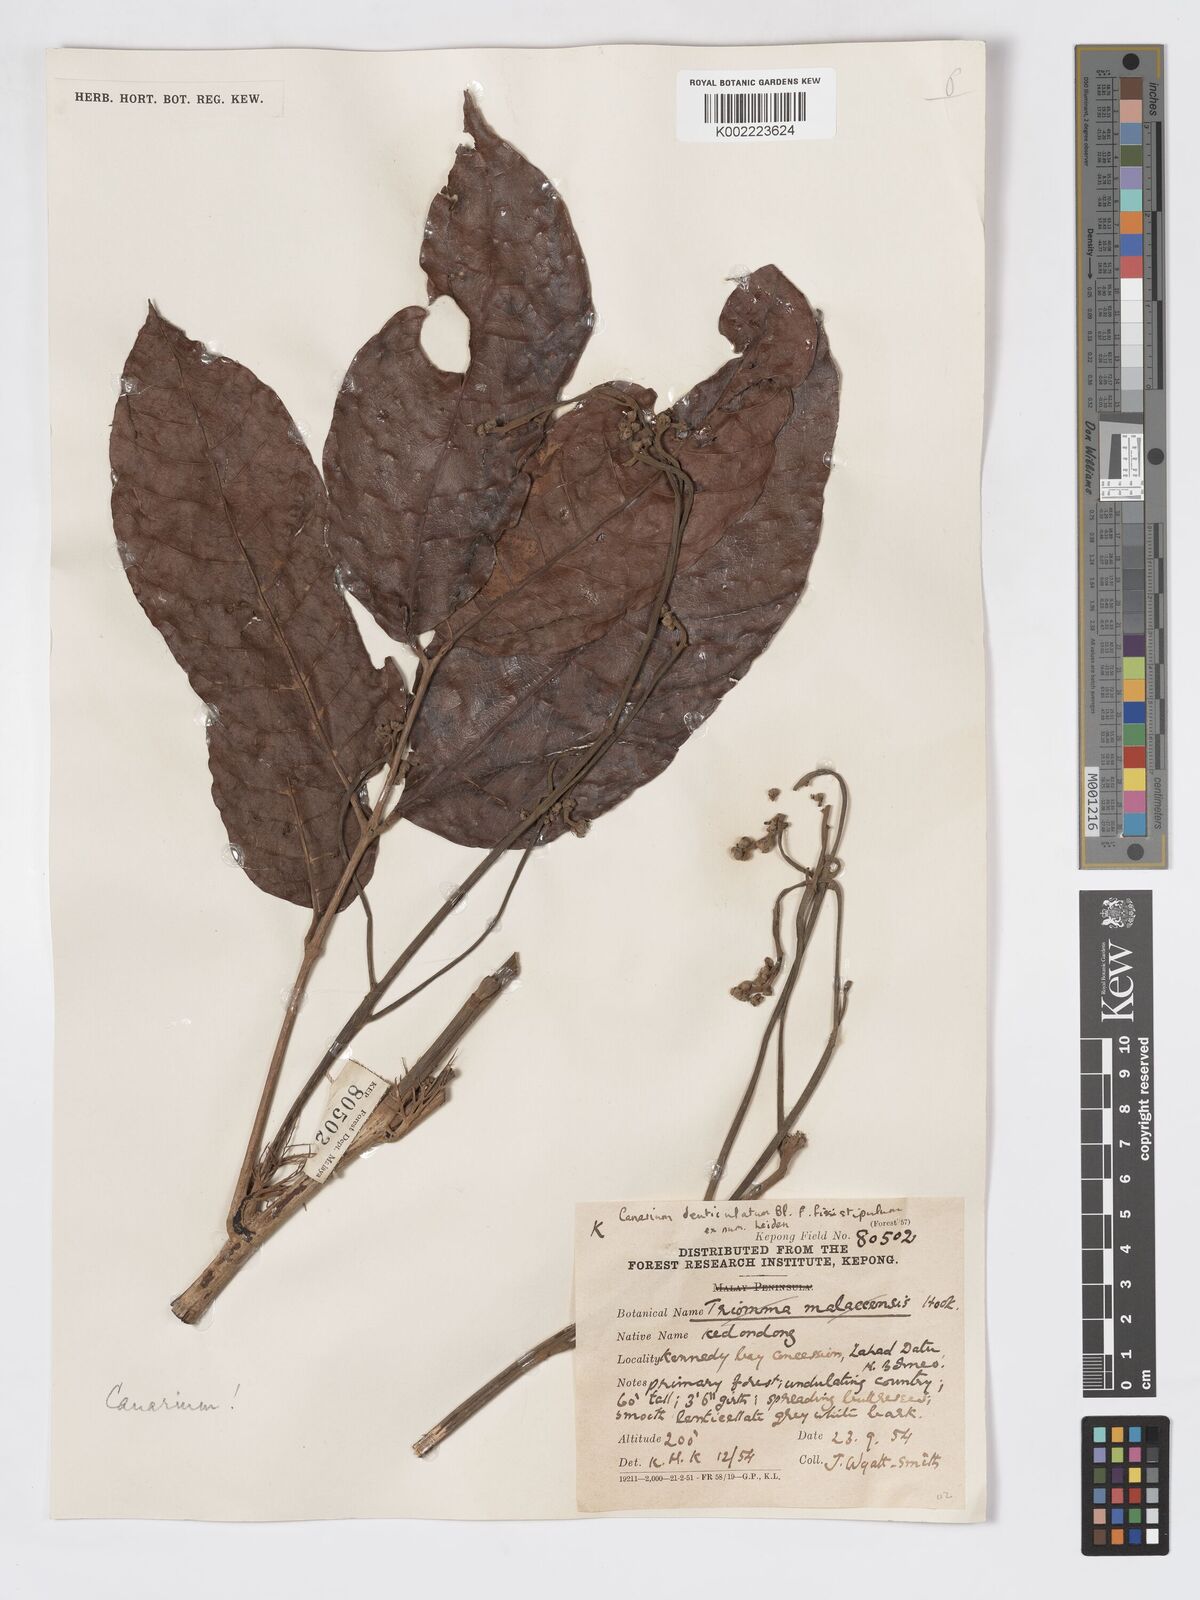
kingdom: Plantae
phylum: Tracheophyta
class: Magnoliopsida
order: Sapindales
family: Burseraceae
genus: Canarium
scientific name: Canarium denticulatum
